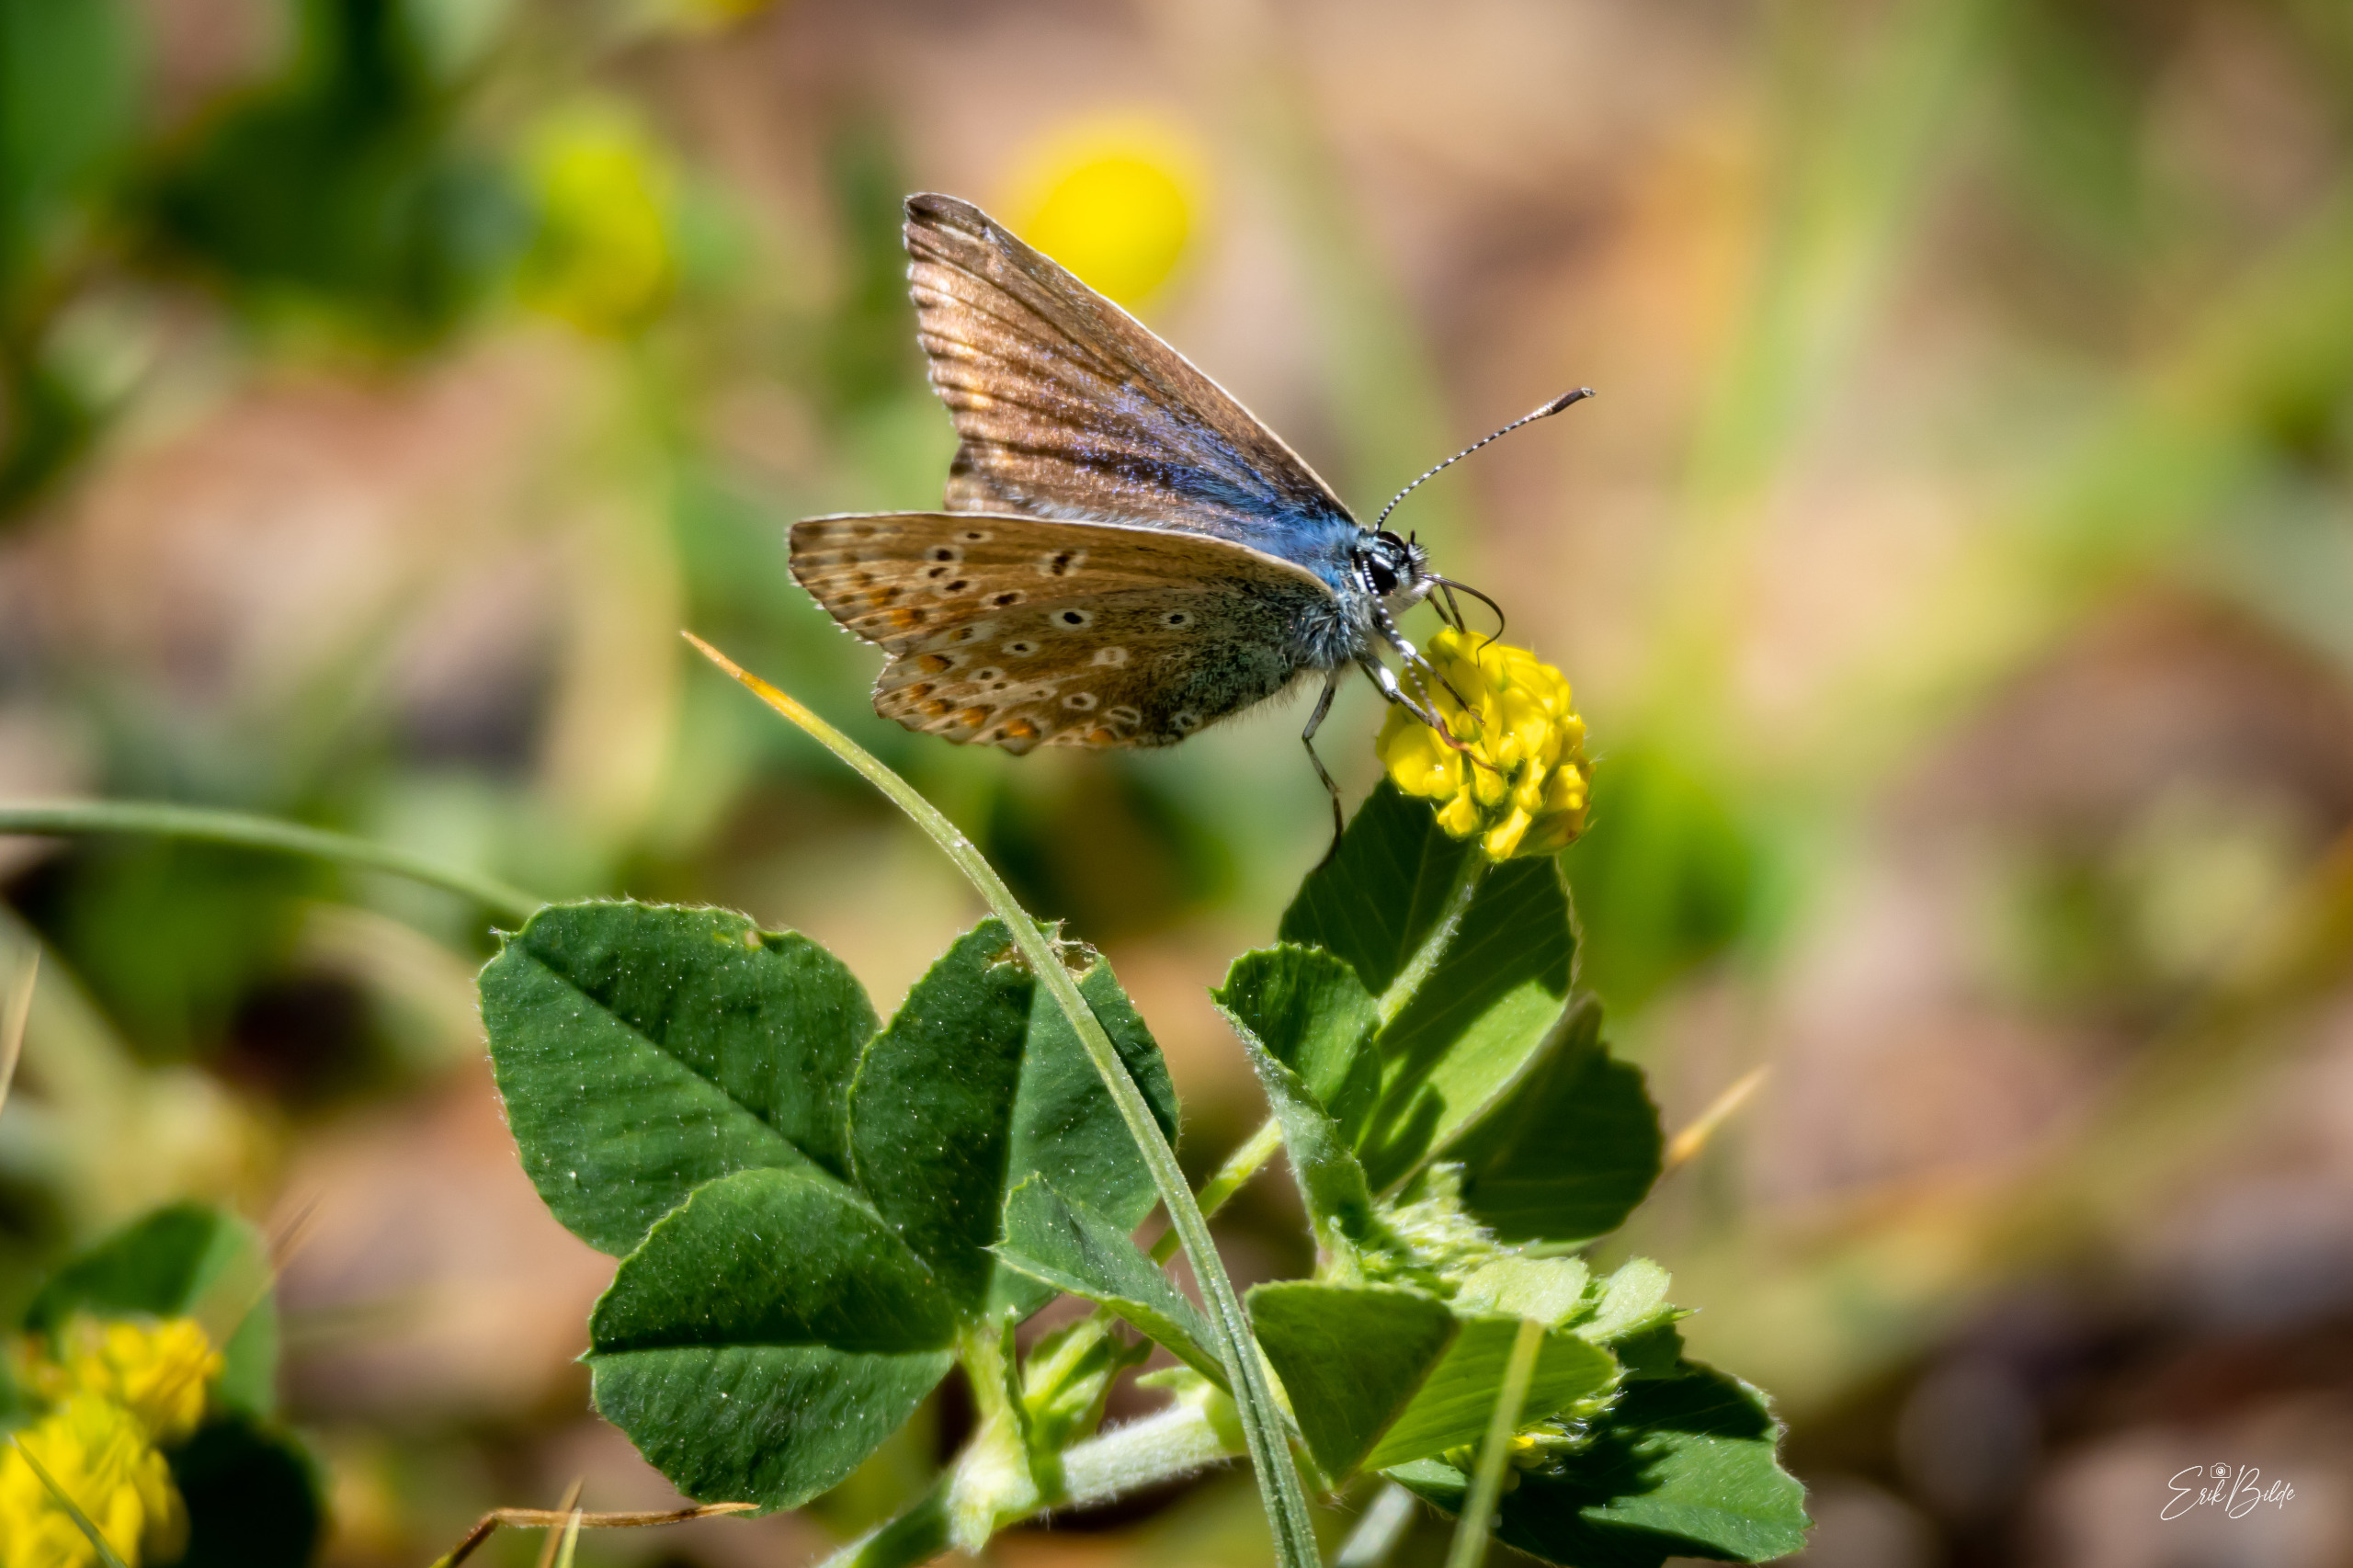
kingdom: Animalia
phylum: Arthropoda
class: Insecta
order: Lepidoptera
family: Lycaenidae
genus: Polyommatus
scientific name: Polyommatus icarus
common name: Almindelig blåfugl
